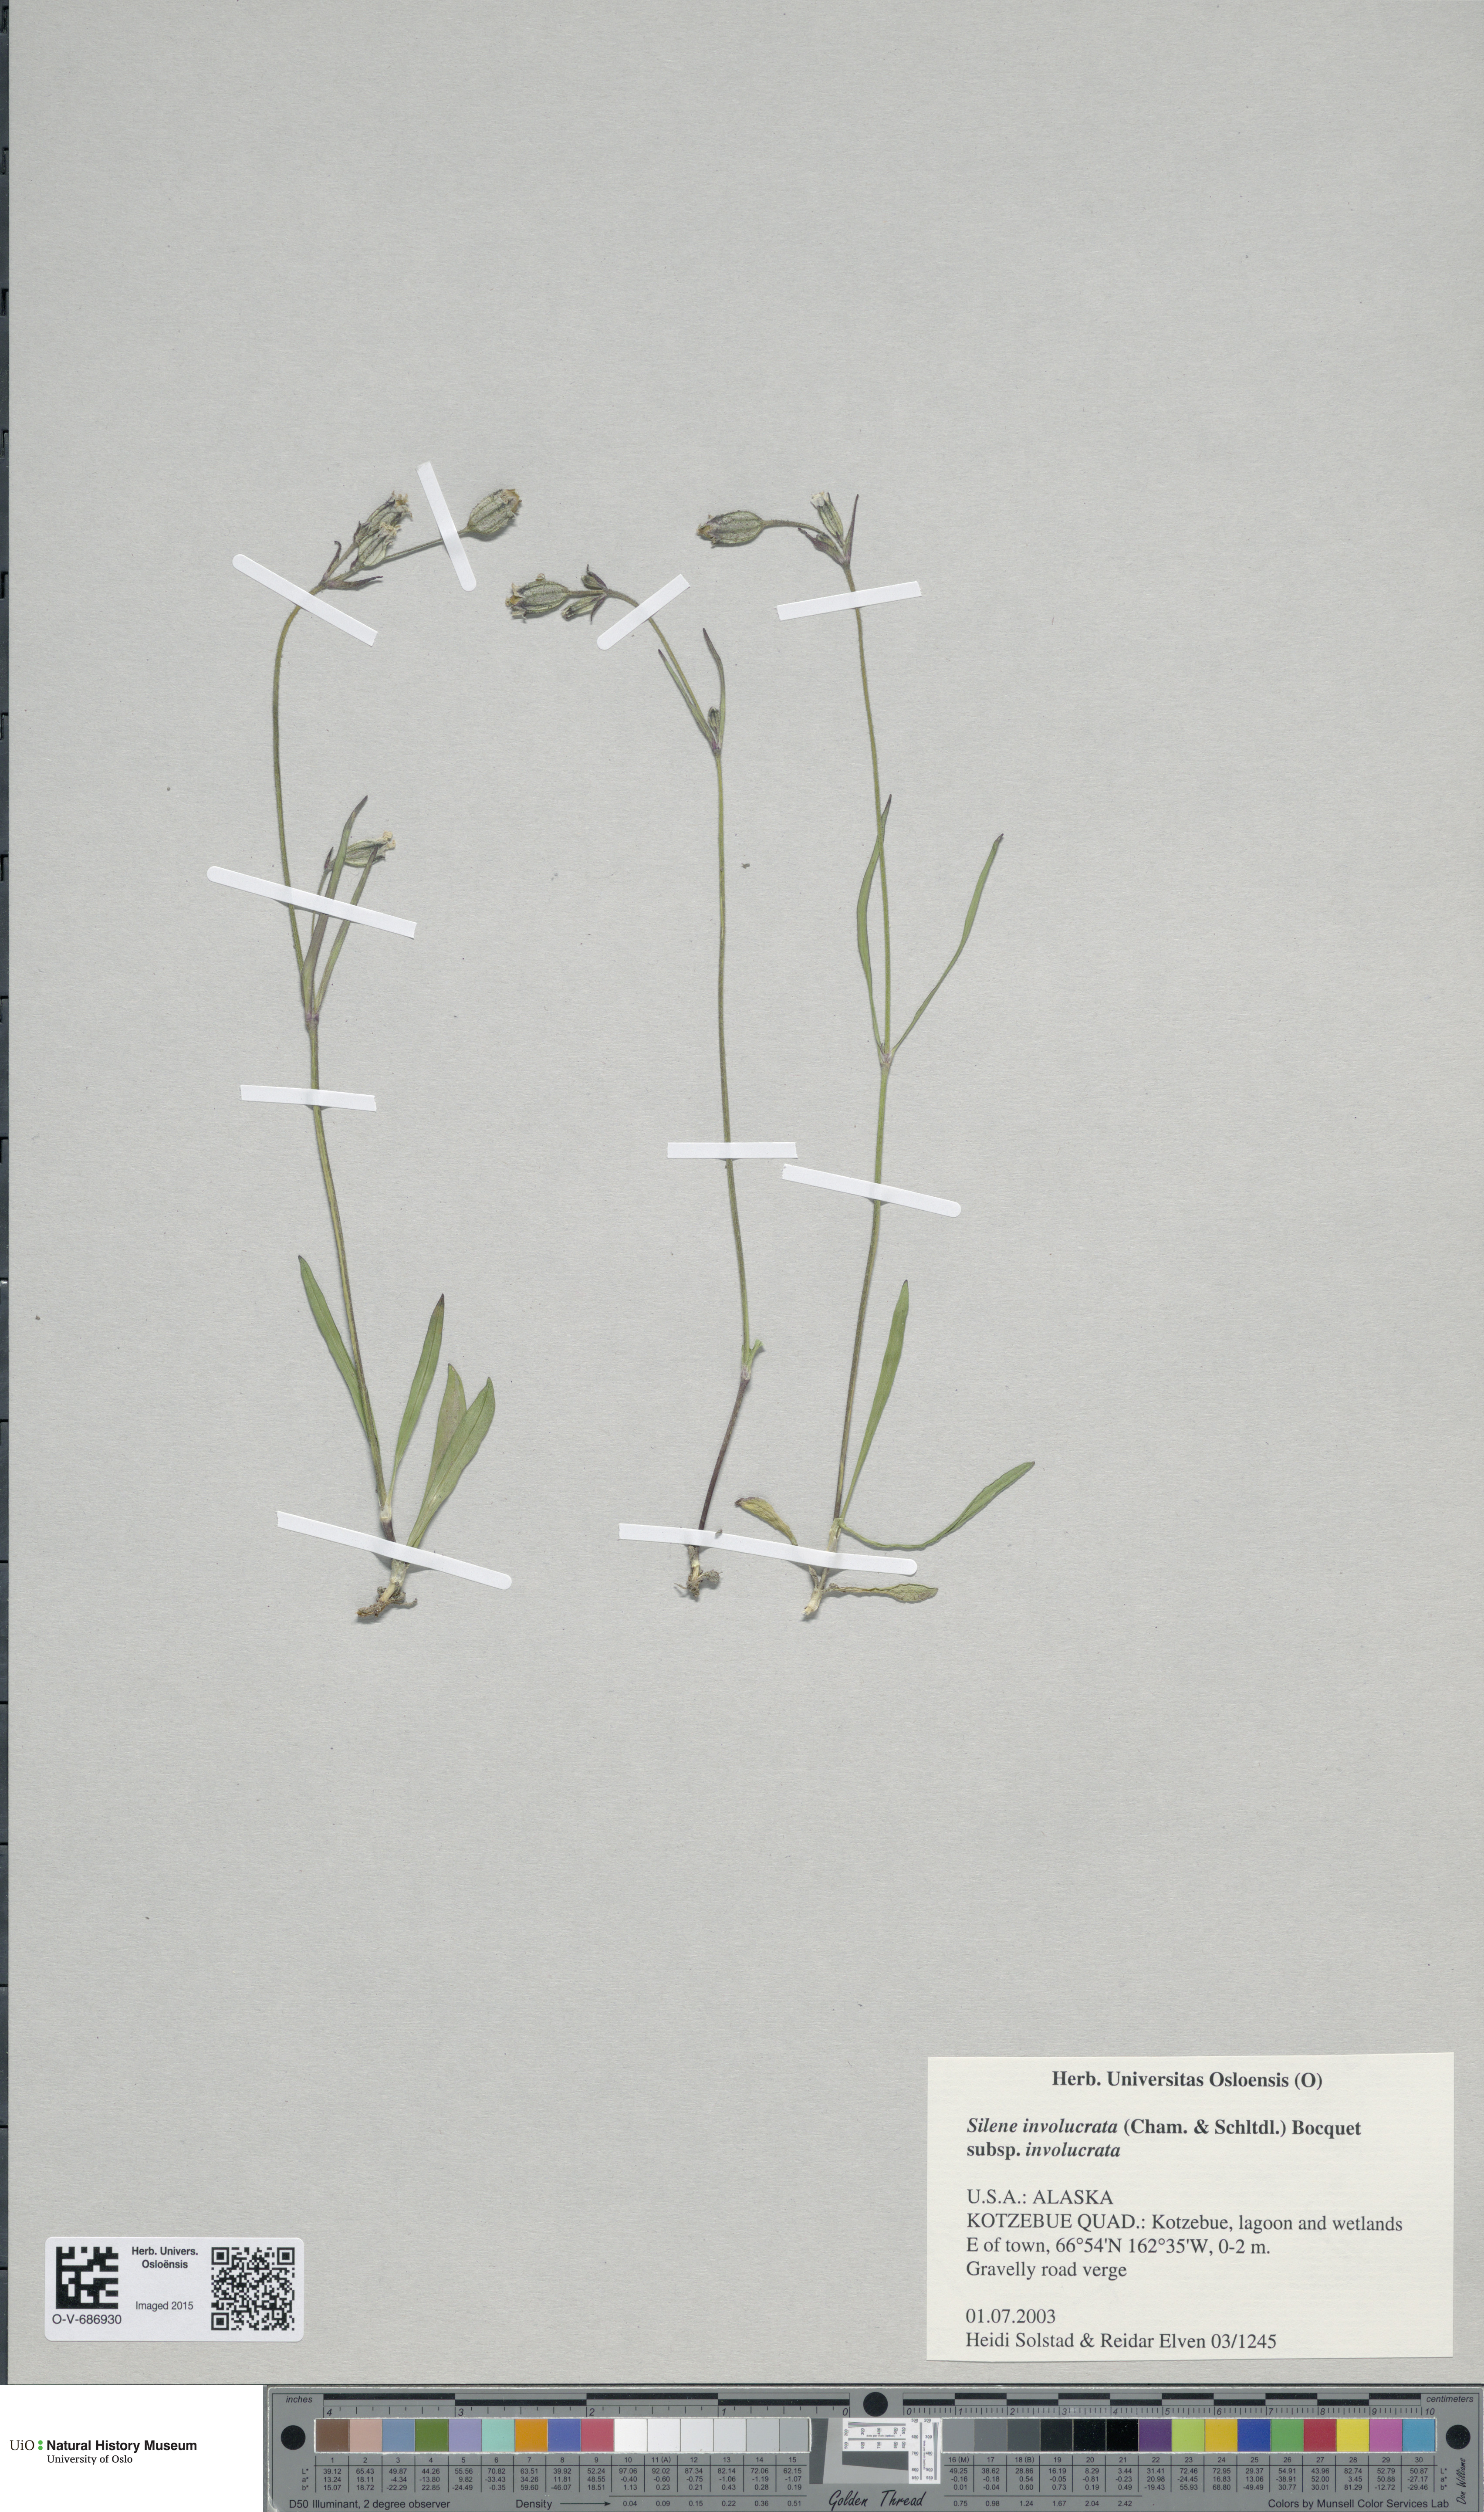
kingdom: Plantae
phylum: Tracheophyta
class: Magnoliopsida
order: Caryophyllales
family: Caryophyllaceae
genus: Silene
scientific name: Silene involucrata
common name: Greater arctic campion
